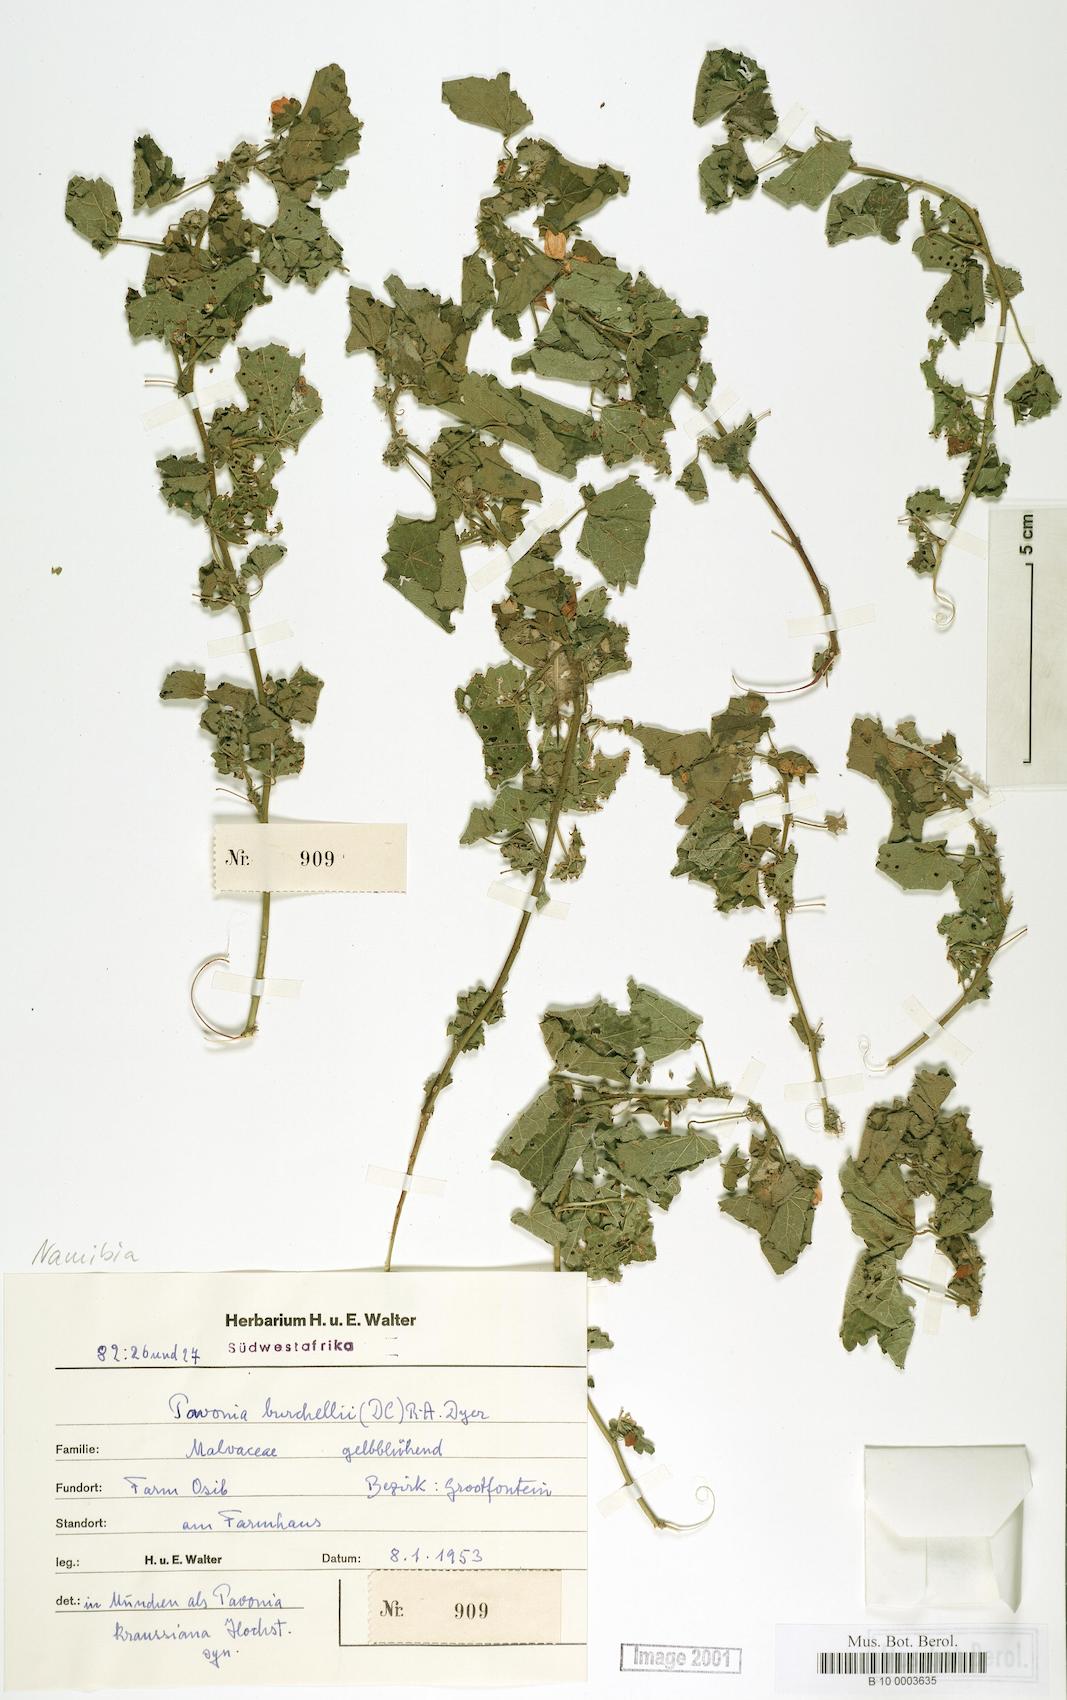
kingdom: Plantae
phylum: Tracheophyta
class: Magnoliopsida
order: Malvales
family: Malvaceae
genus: Pavonia
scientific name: Pavonia burchellii
